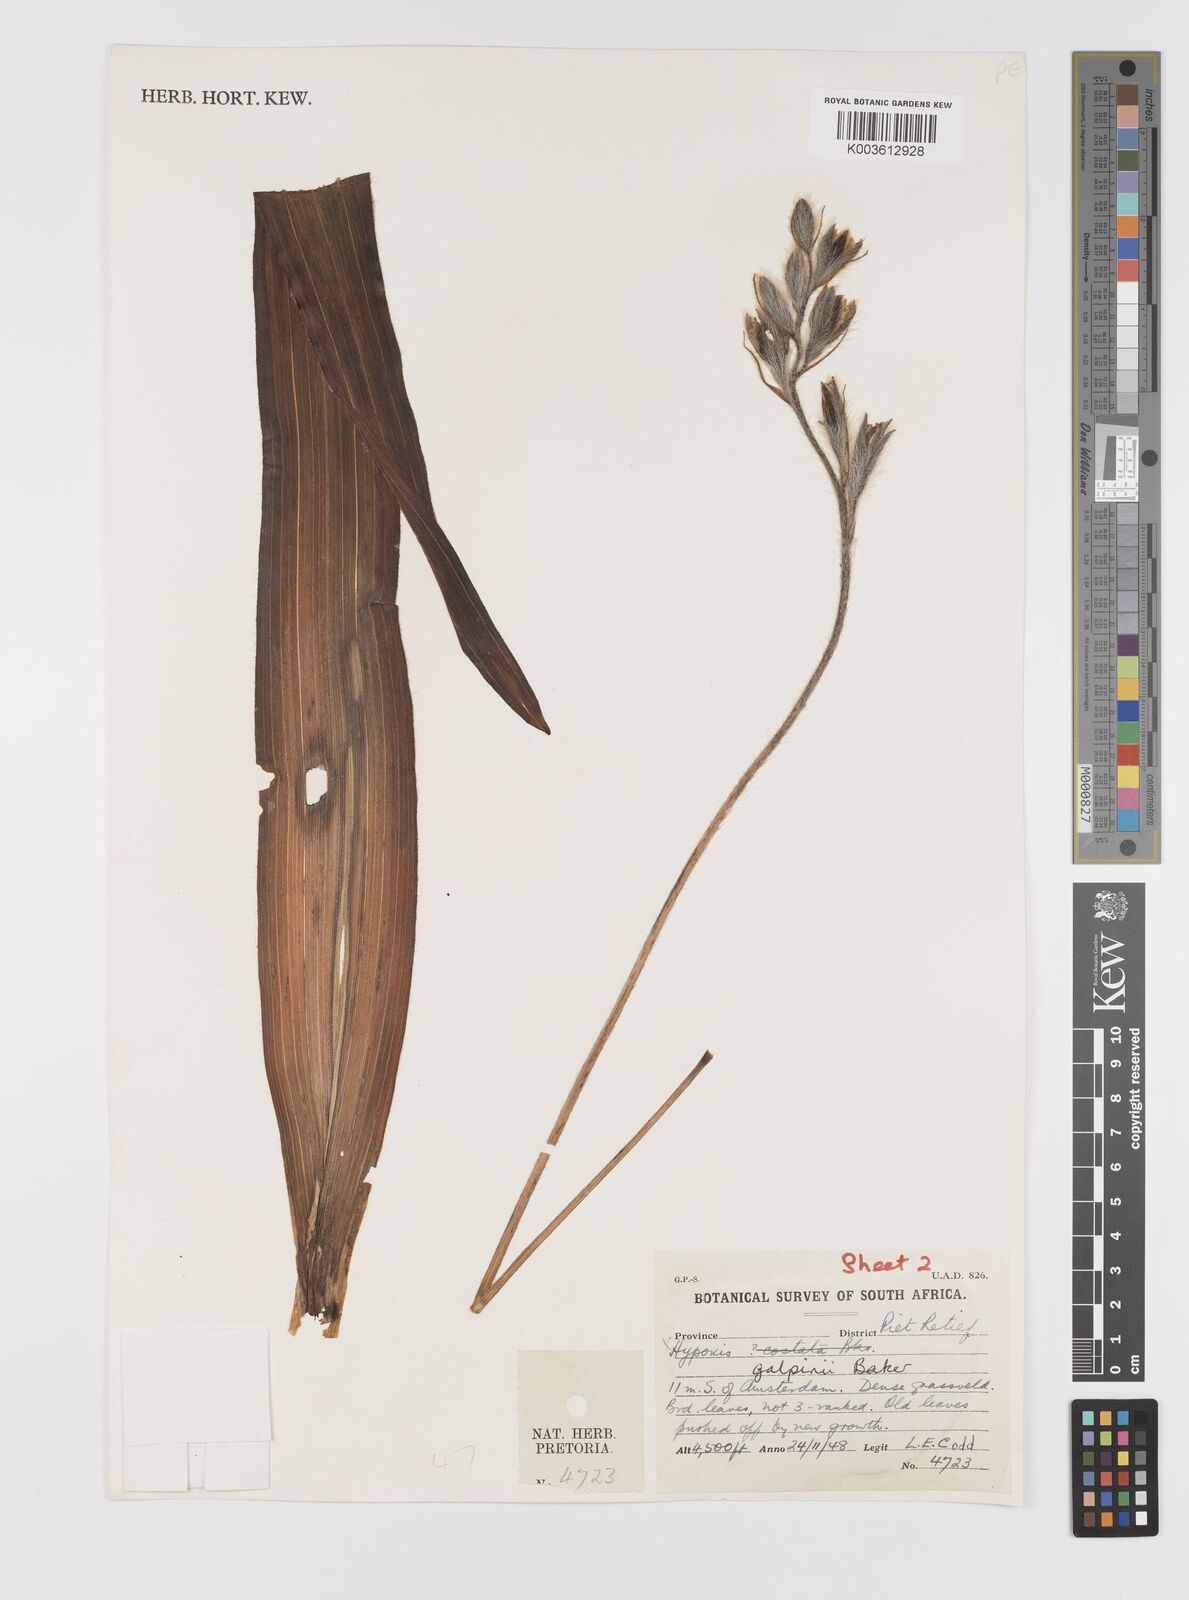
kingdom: Plantae
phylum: Tracheophyta
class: Liliopsida
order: Asparagales
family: Hypoxidaceae
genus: Hypoxis
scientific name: Hypoxis galpinii
